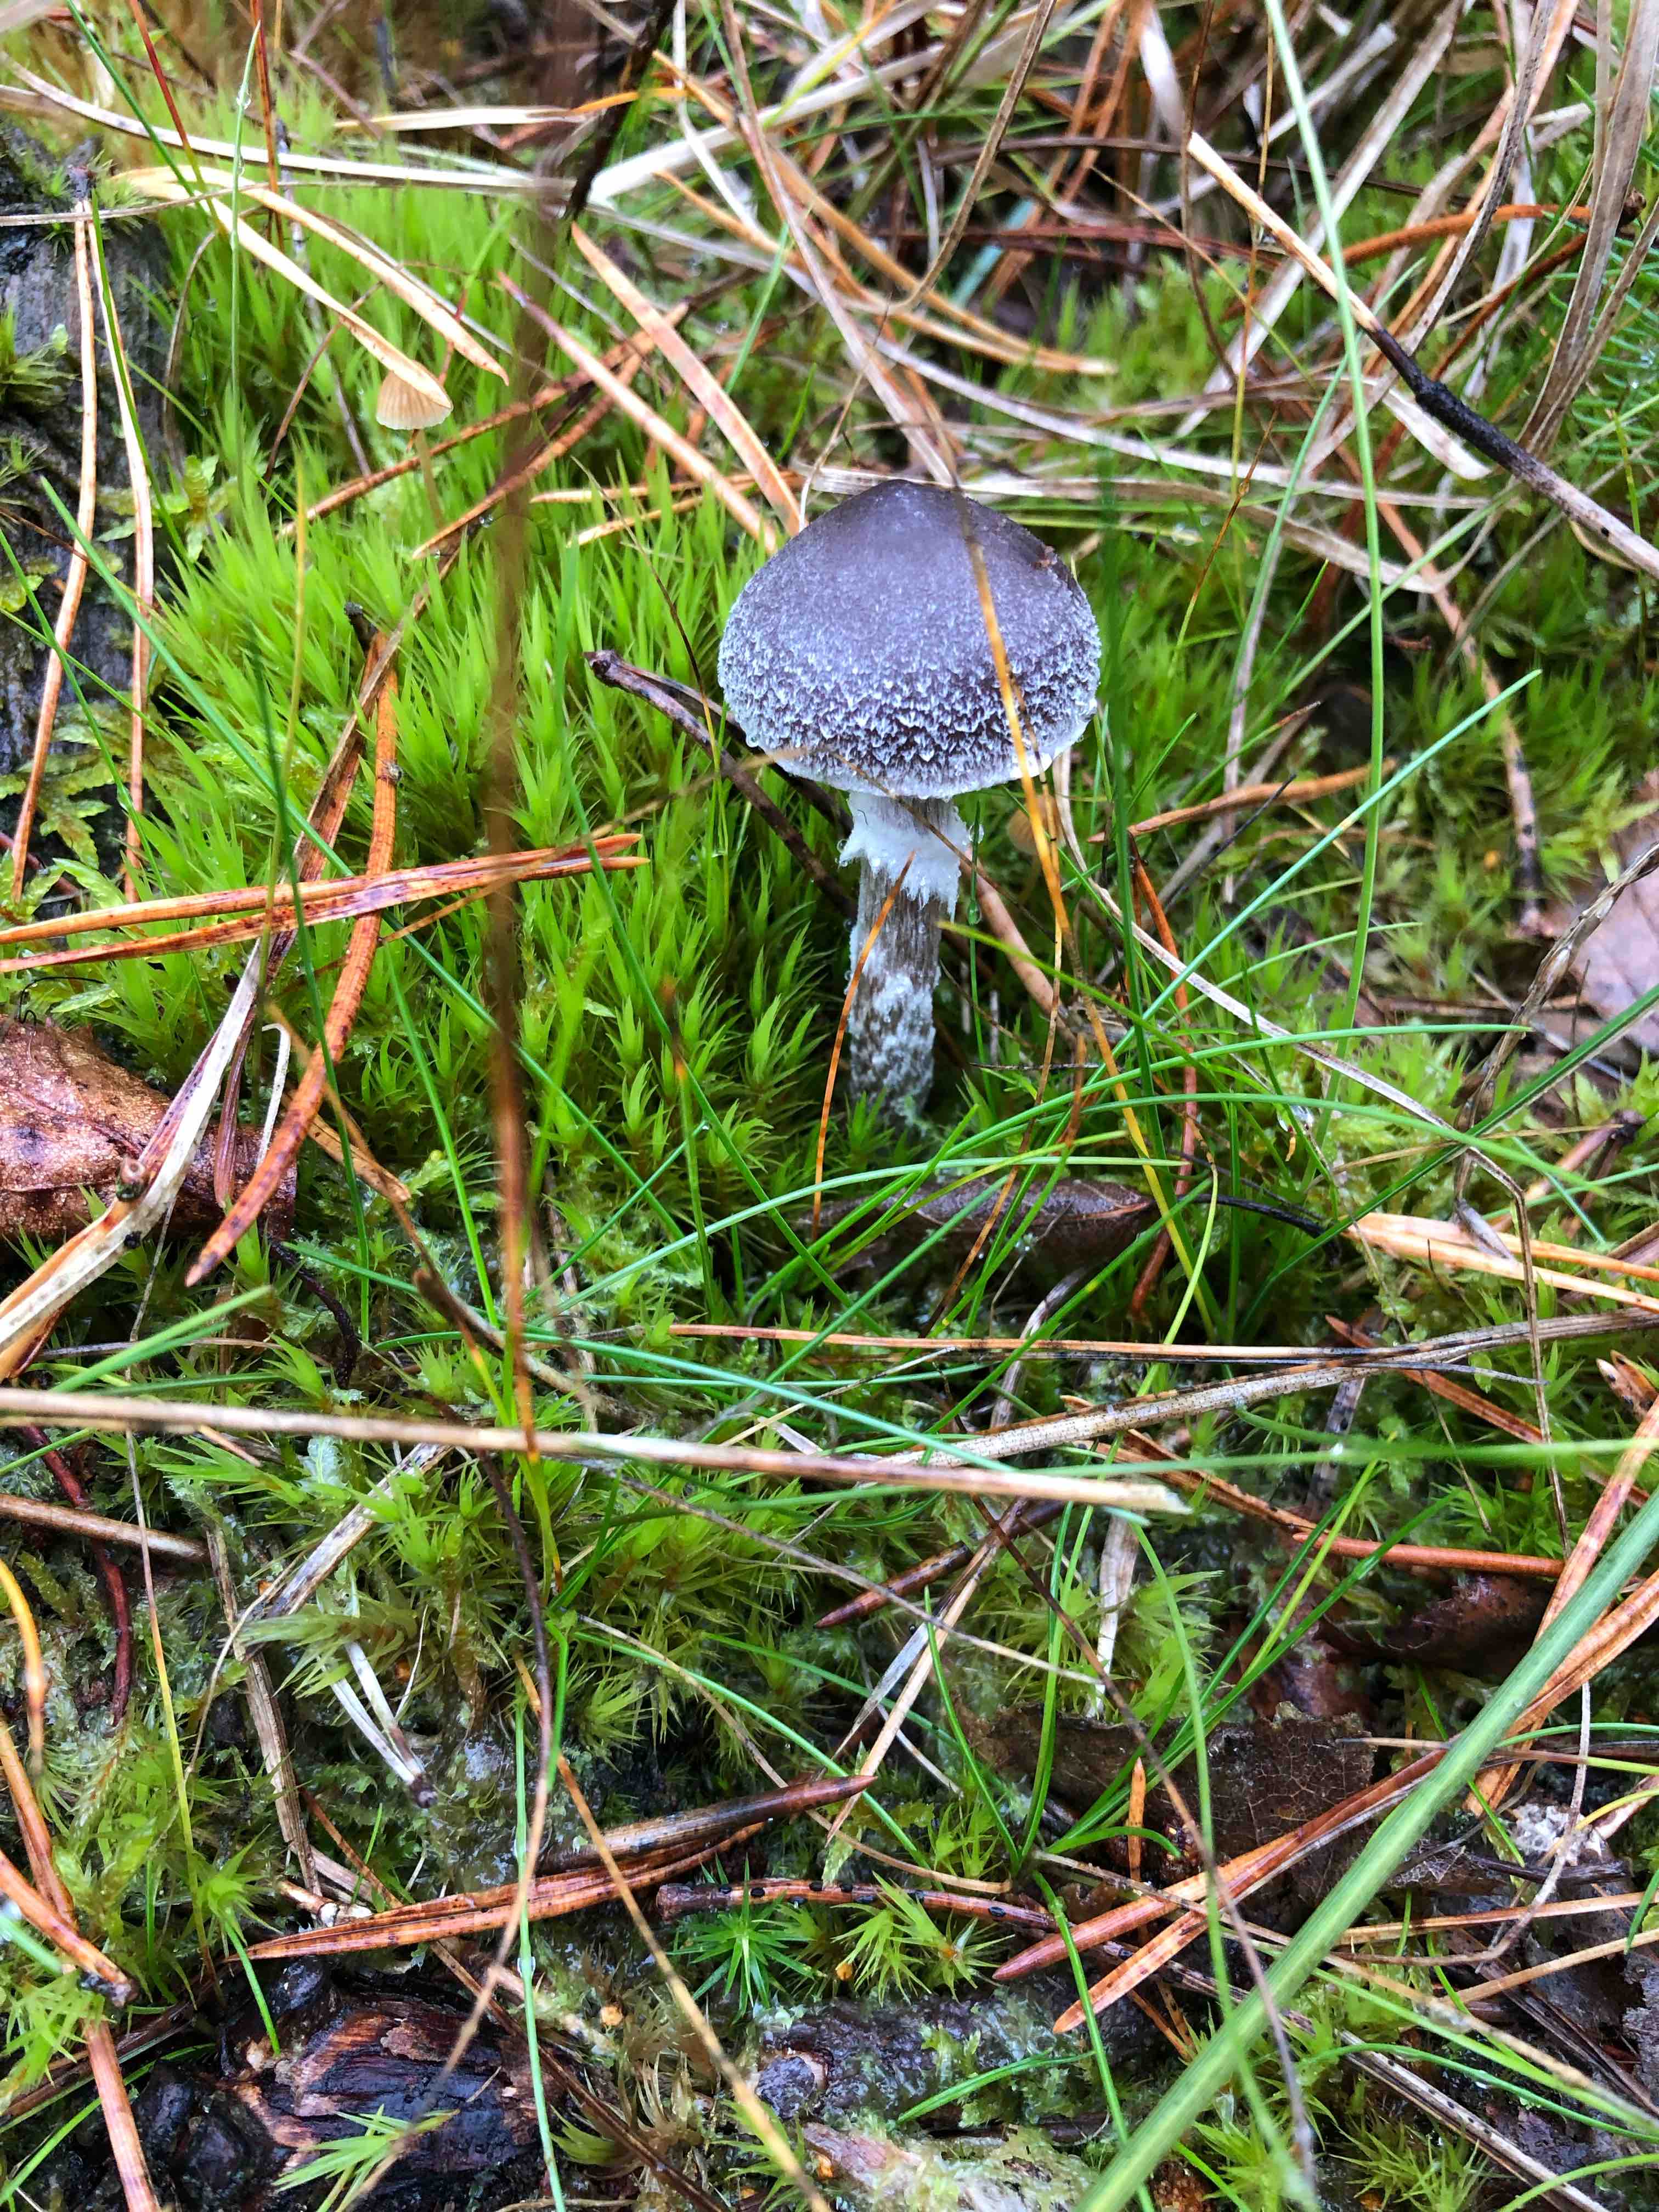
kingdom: Fungi
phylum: Basidiomycota
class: Agaricomycetes
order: Agaricales
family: Cortinariaceae
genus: Cortinarius
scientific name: Cortinarius
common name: pelargonie-slørhat
